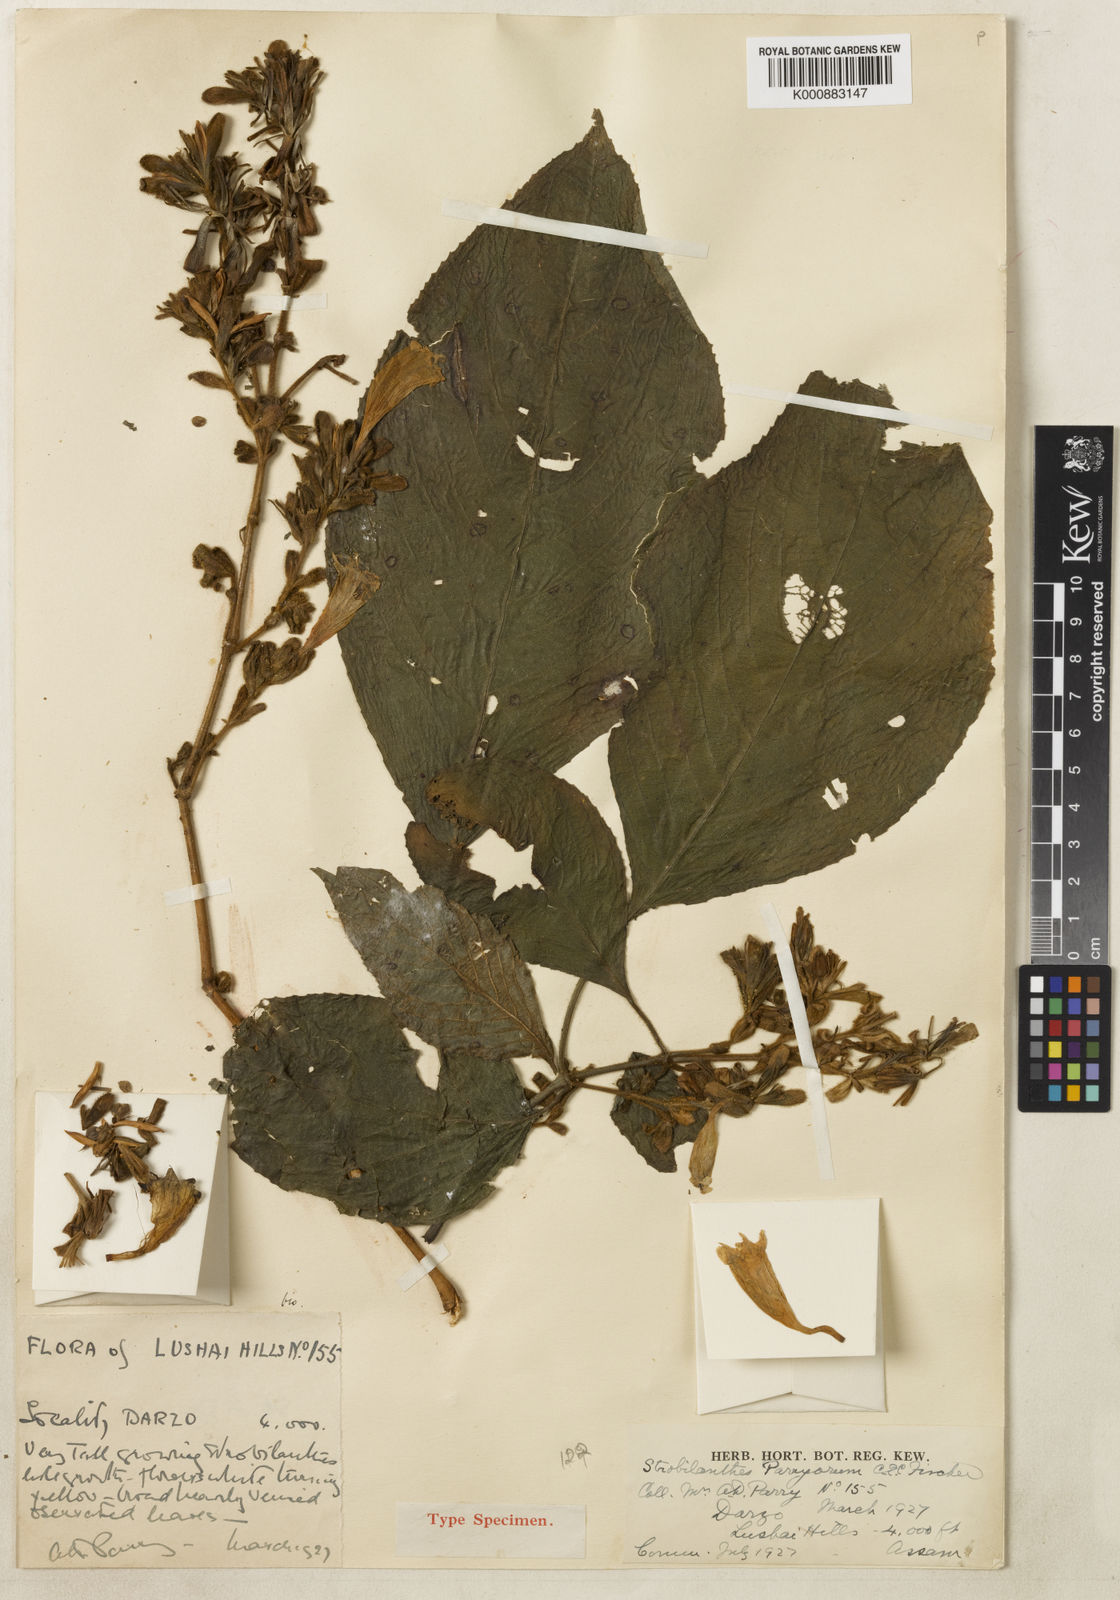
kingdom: Plantae
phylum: Tracheophyta
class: Magnoliopsida
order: Lamiales
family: Acanthaceae
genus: Strobilanthes
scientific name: Strobilanthes parryorum
